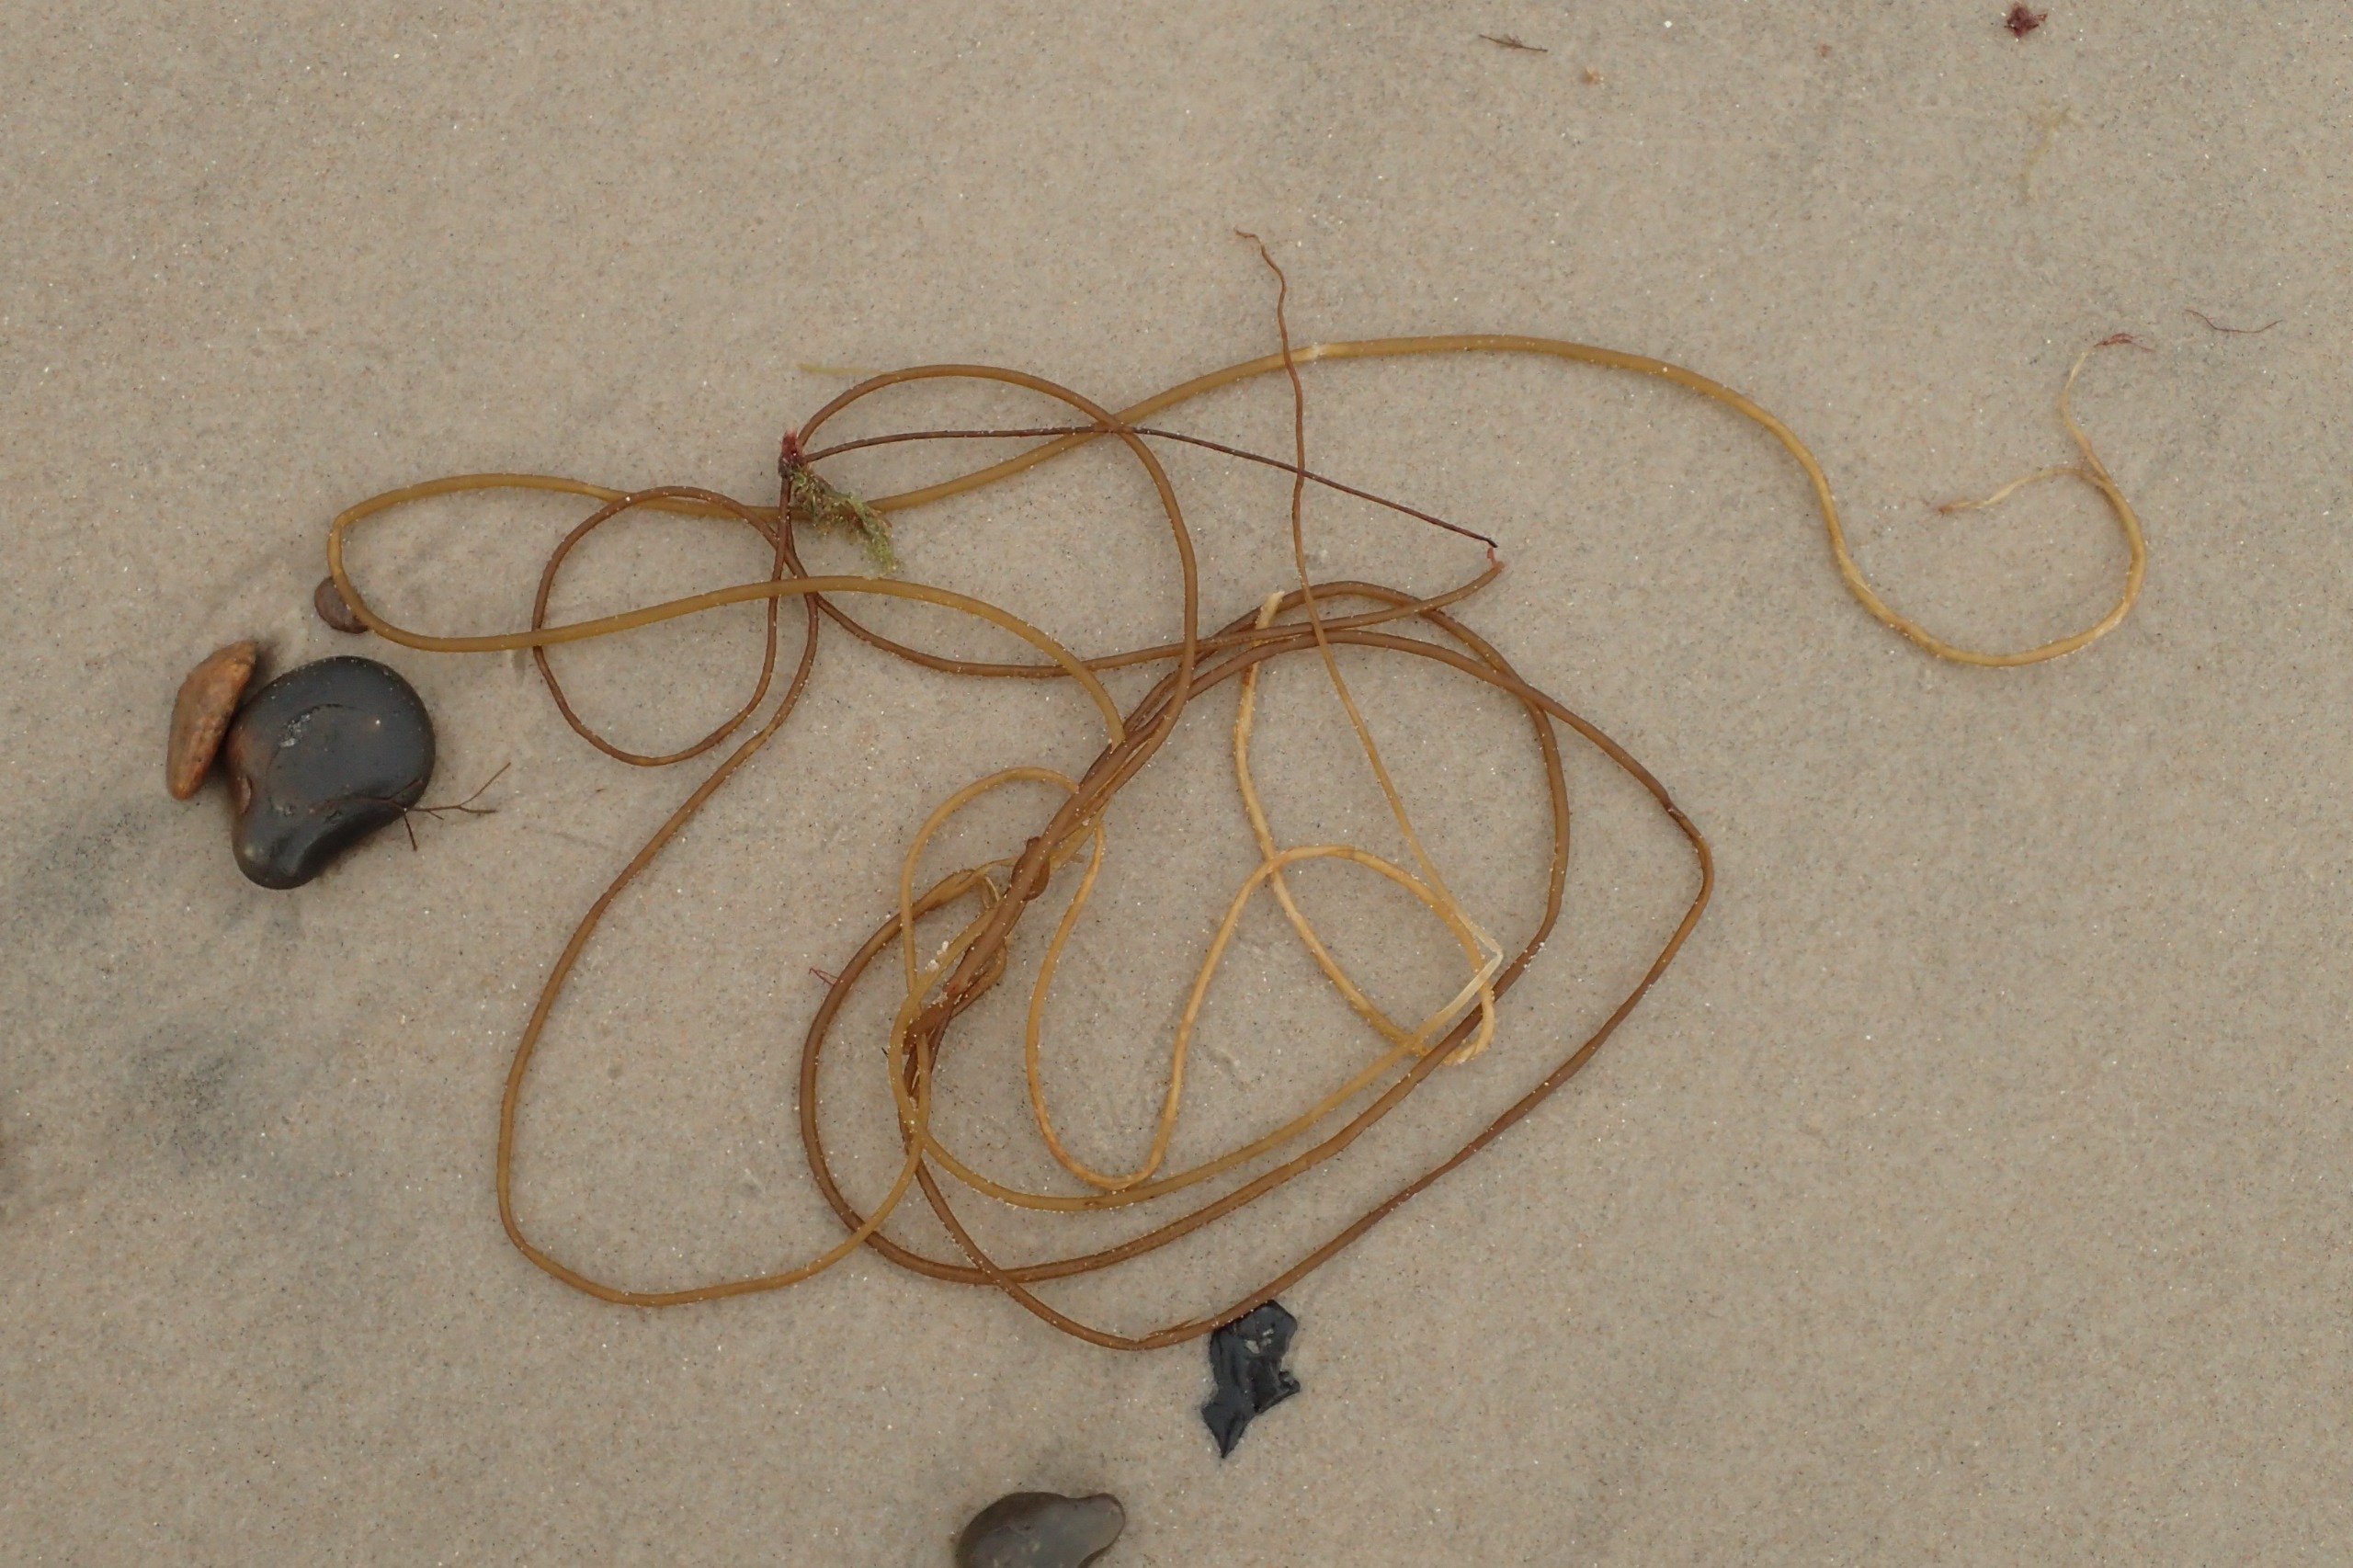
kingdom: Chromista
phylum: Ochrophyta
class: Phaeophyceae
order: Laminariales
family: Chordaceae
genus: Chorda
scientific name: Chorda filum
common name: Strengetang
